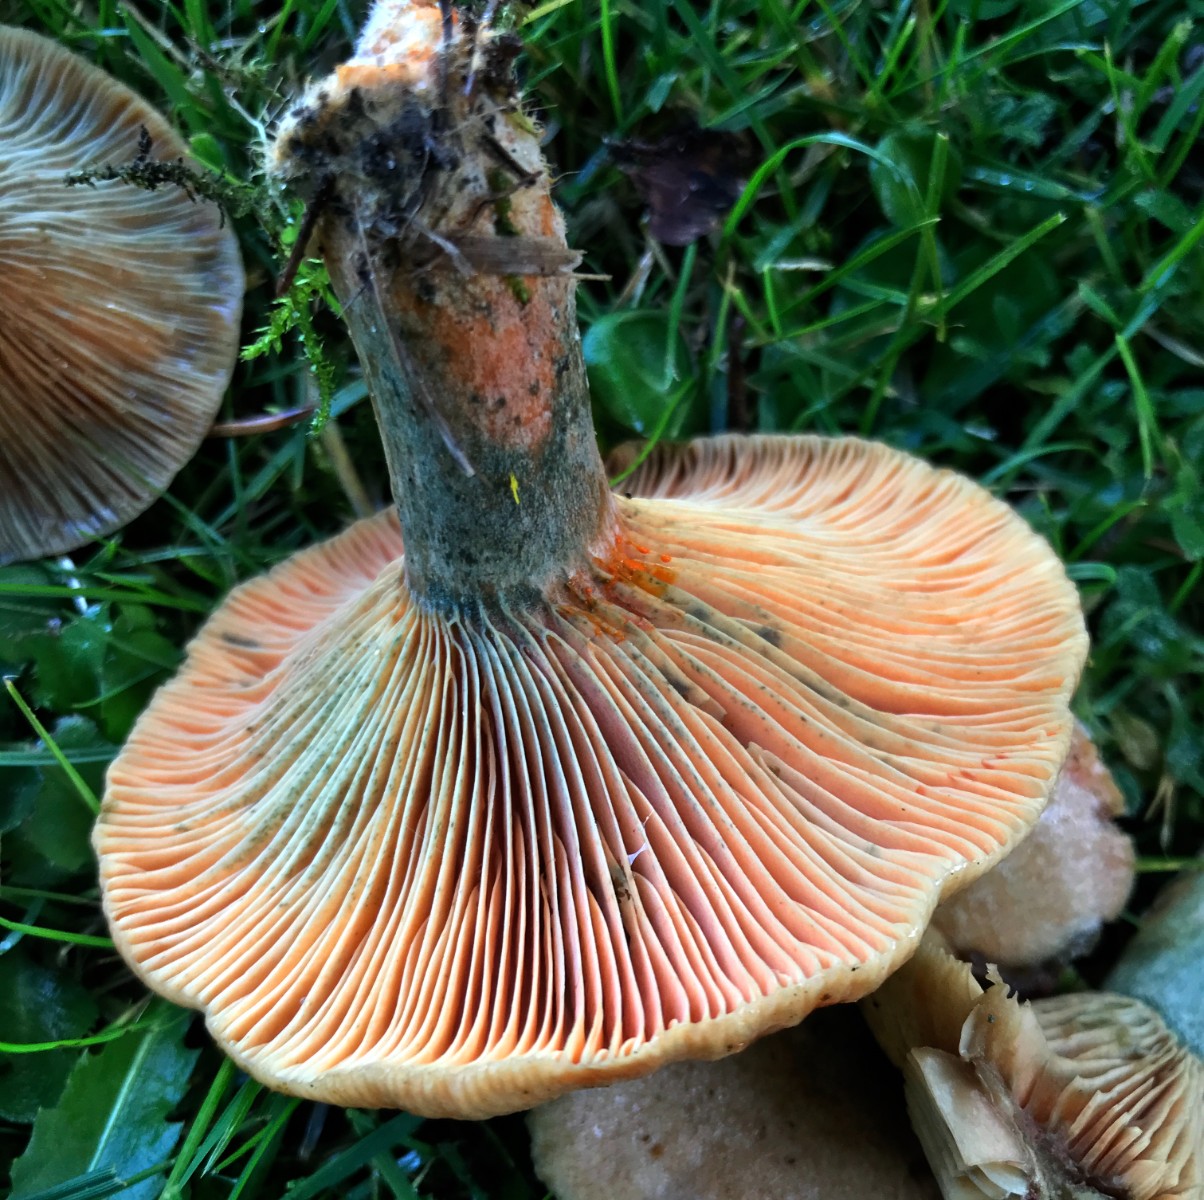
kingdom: Fungi
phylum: Basidiomycota
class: Agaricomycetes
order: Russulales
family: Russulaceae
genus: Lactarius
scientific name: Lactarius deterrimus
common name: gran-mælkehat
